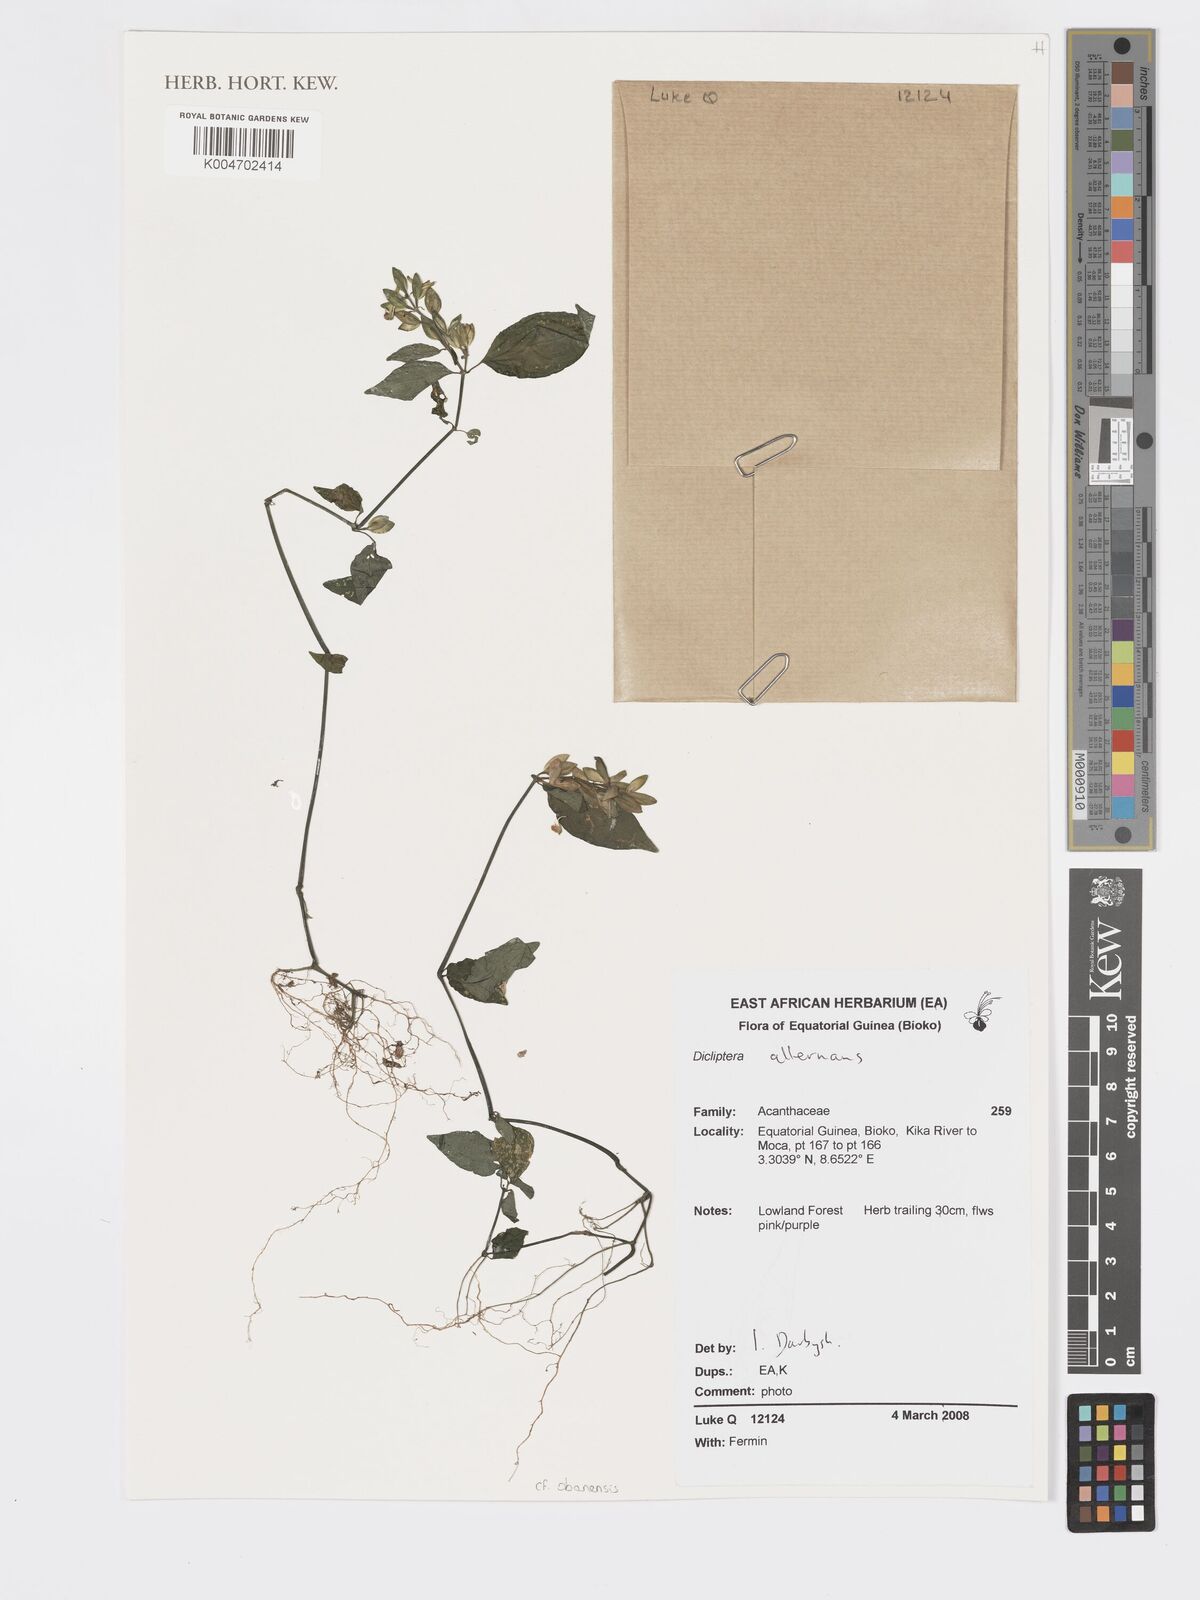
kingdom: Plantae
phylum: Tracheophyta
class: Magnoliopsida
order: Lamiales
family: Acanthaceae
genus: Dicliptera
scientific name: Dicliptera elliotii
